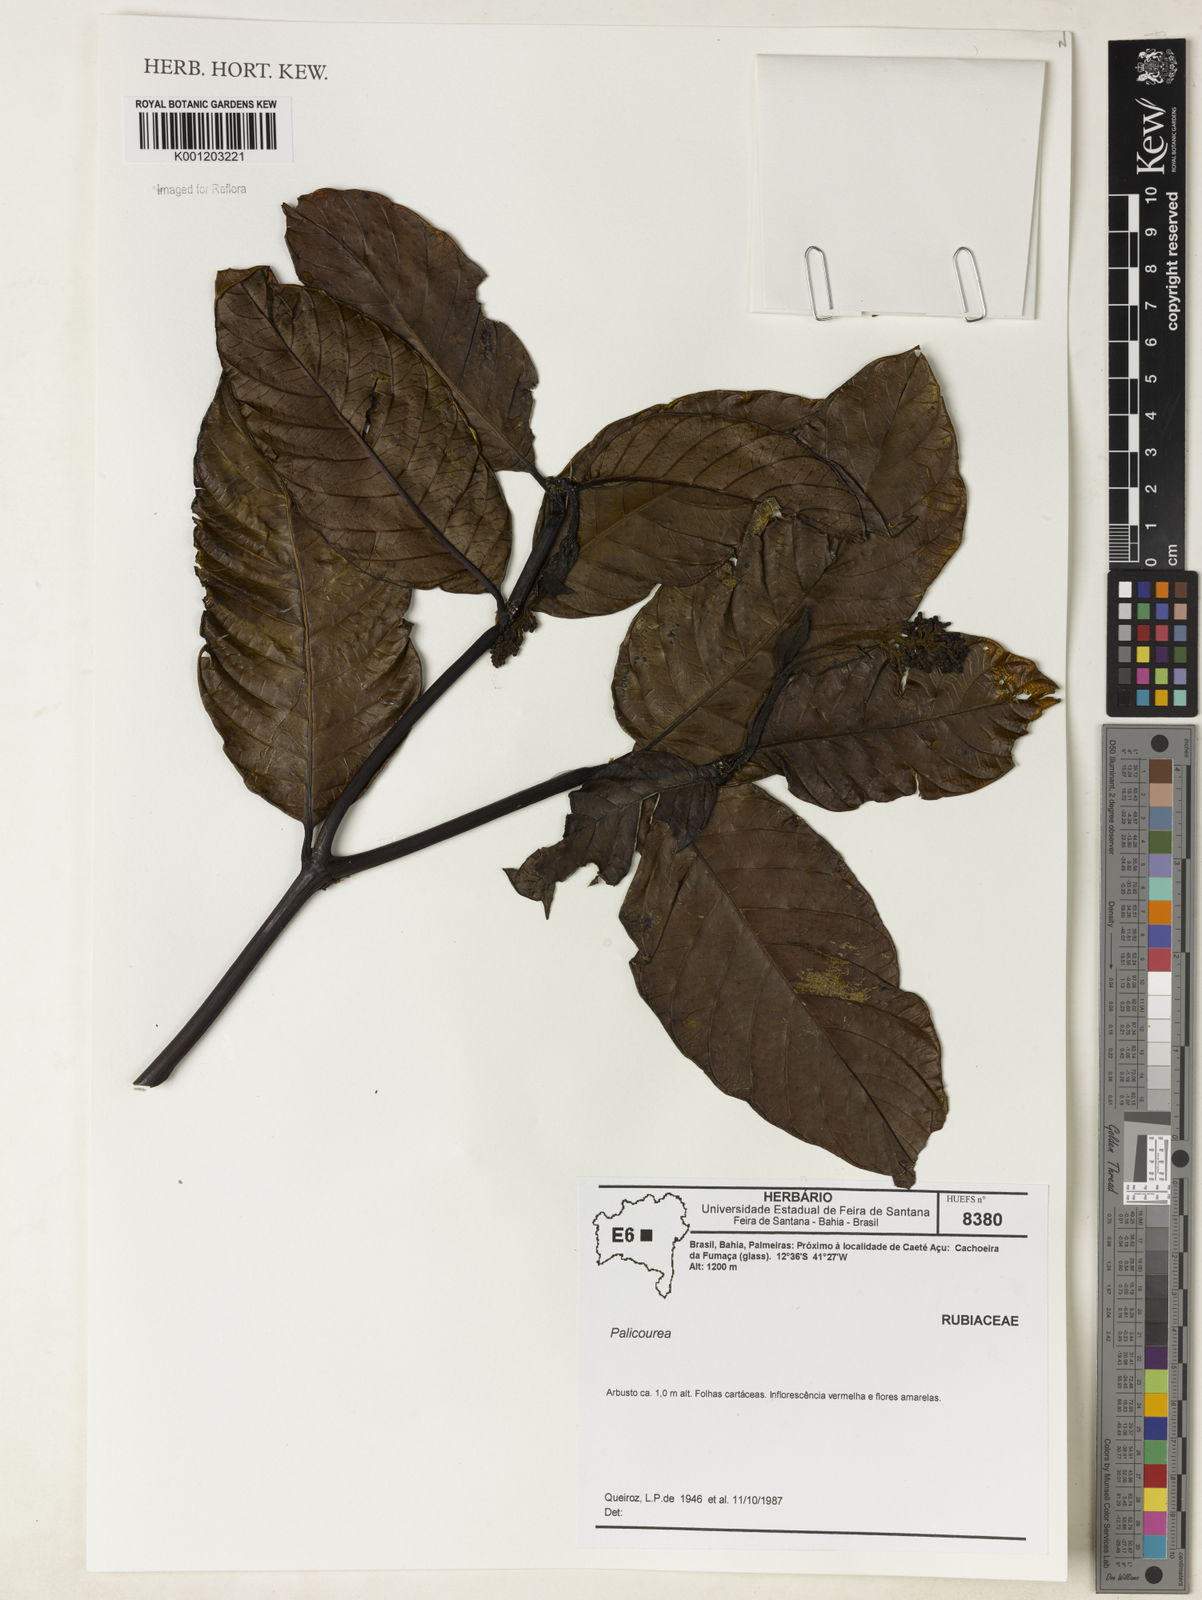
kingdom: Plantae
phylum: Tracheophyta
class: Magnoliopsida
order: Gentianales
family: Rubiaceae
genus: Palicourea
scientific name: Palicourea
